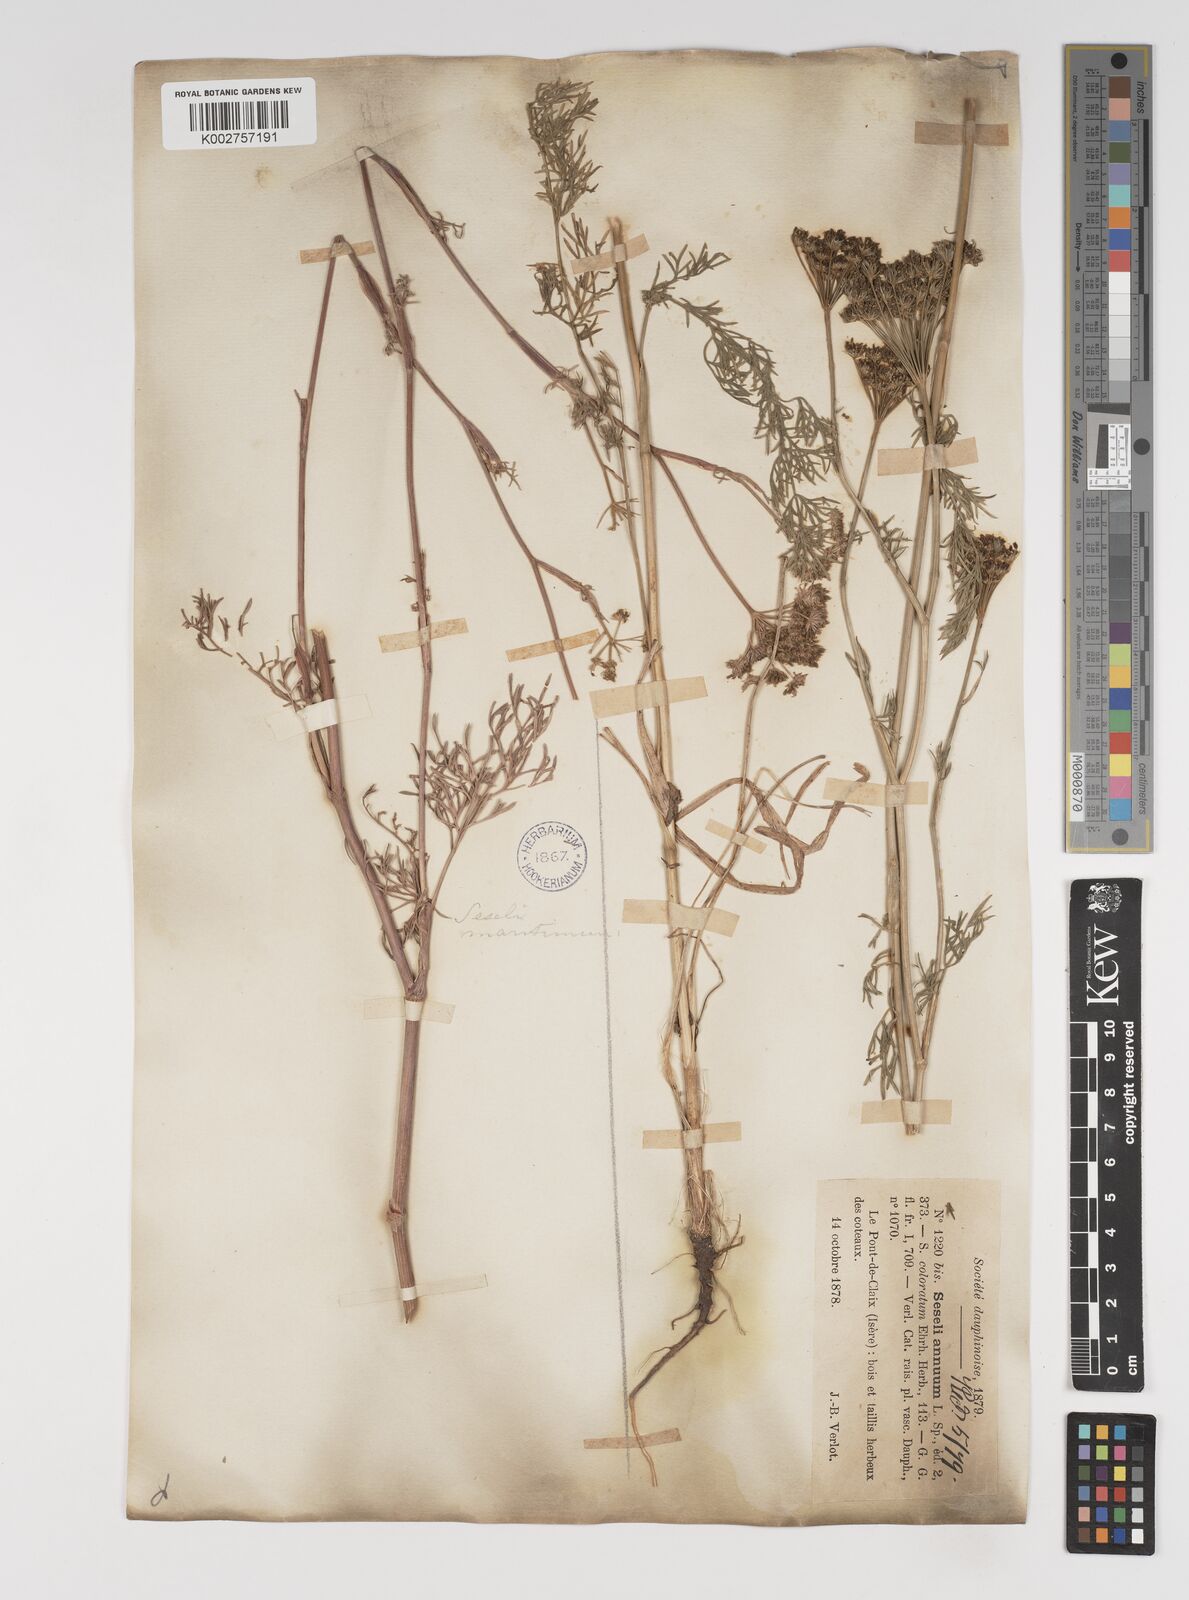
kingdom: Plantae
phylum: Tracheophyta
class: Magnoliopsida
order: Apiales
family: Apiaceae
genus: Seseli
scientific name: Seseli annuum
